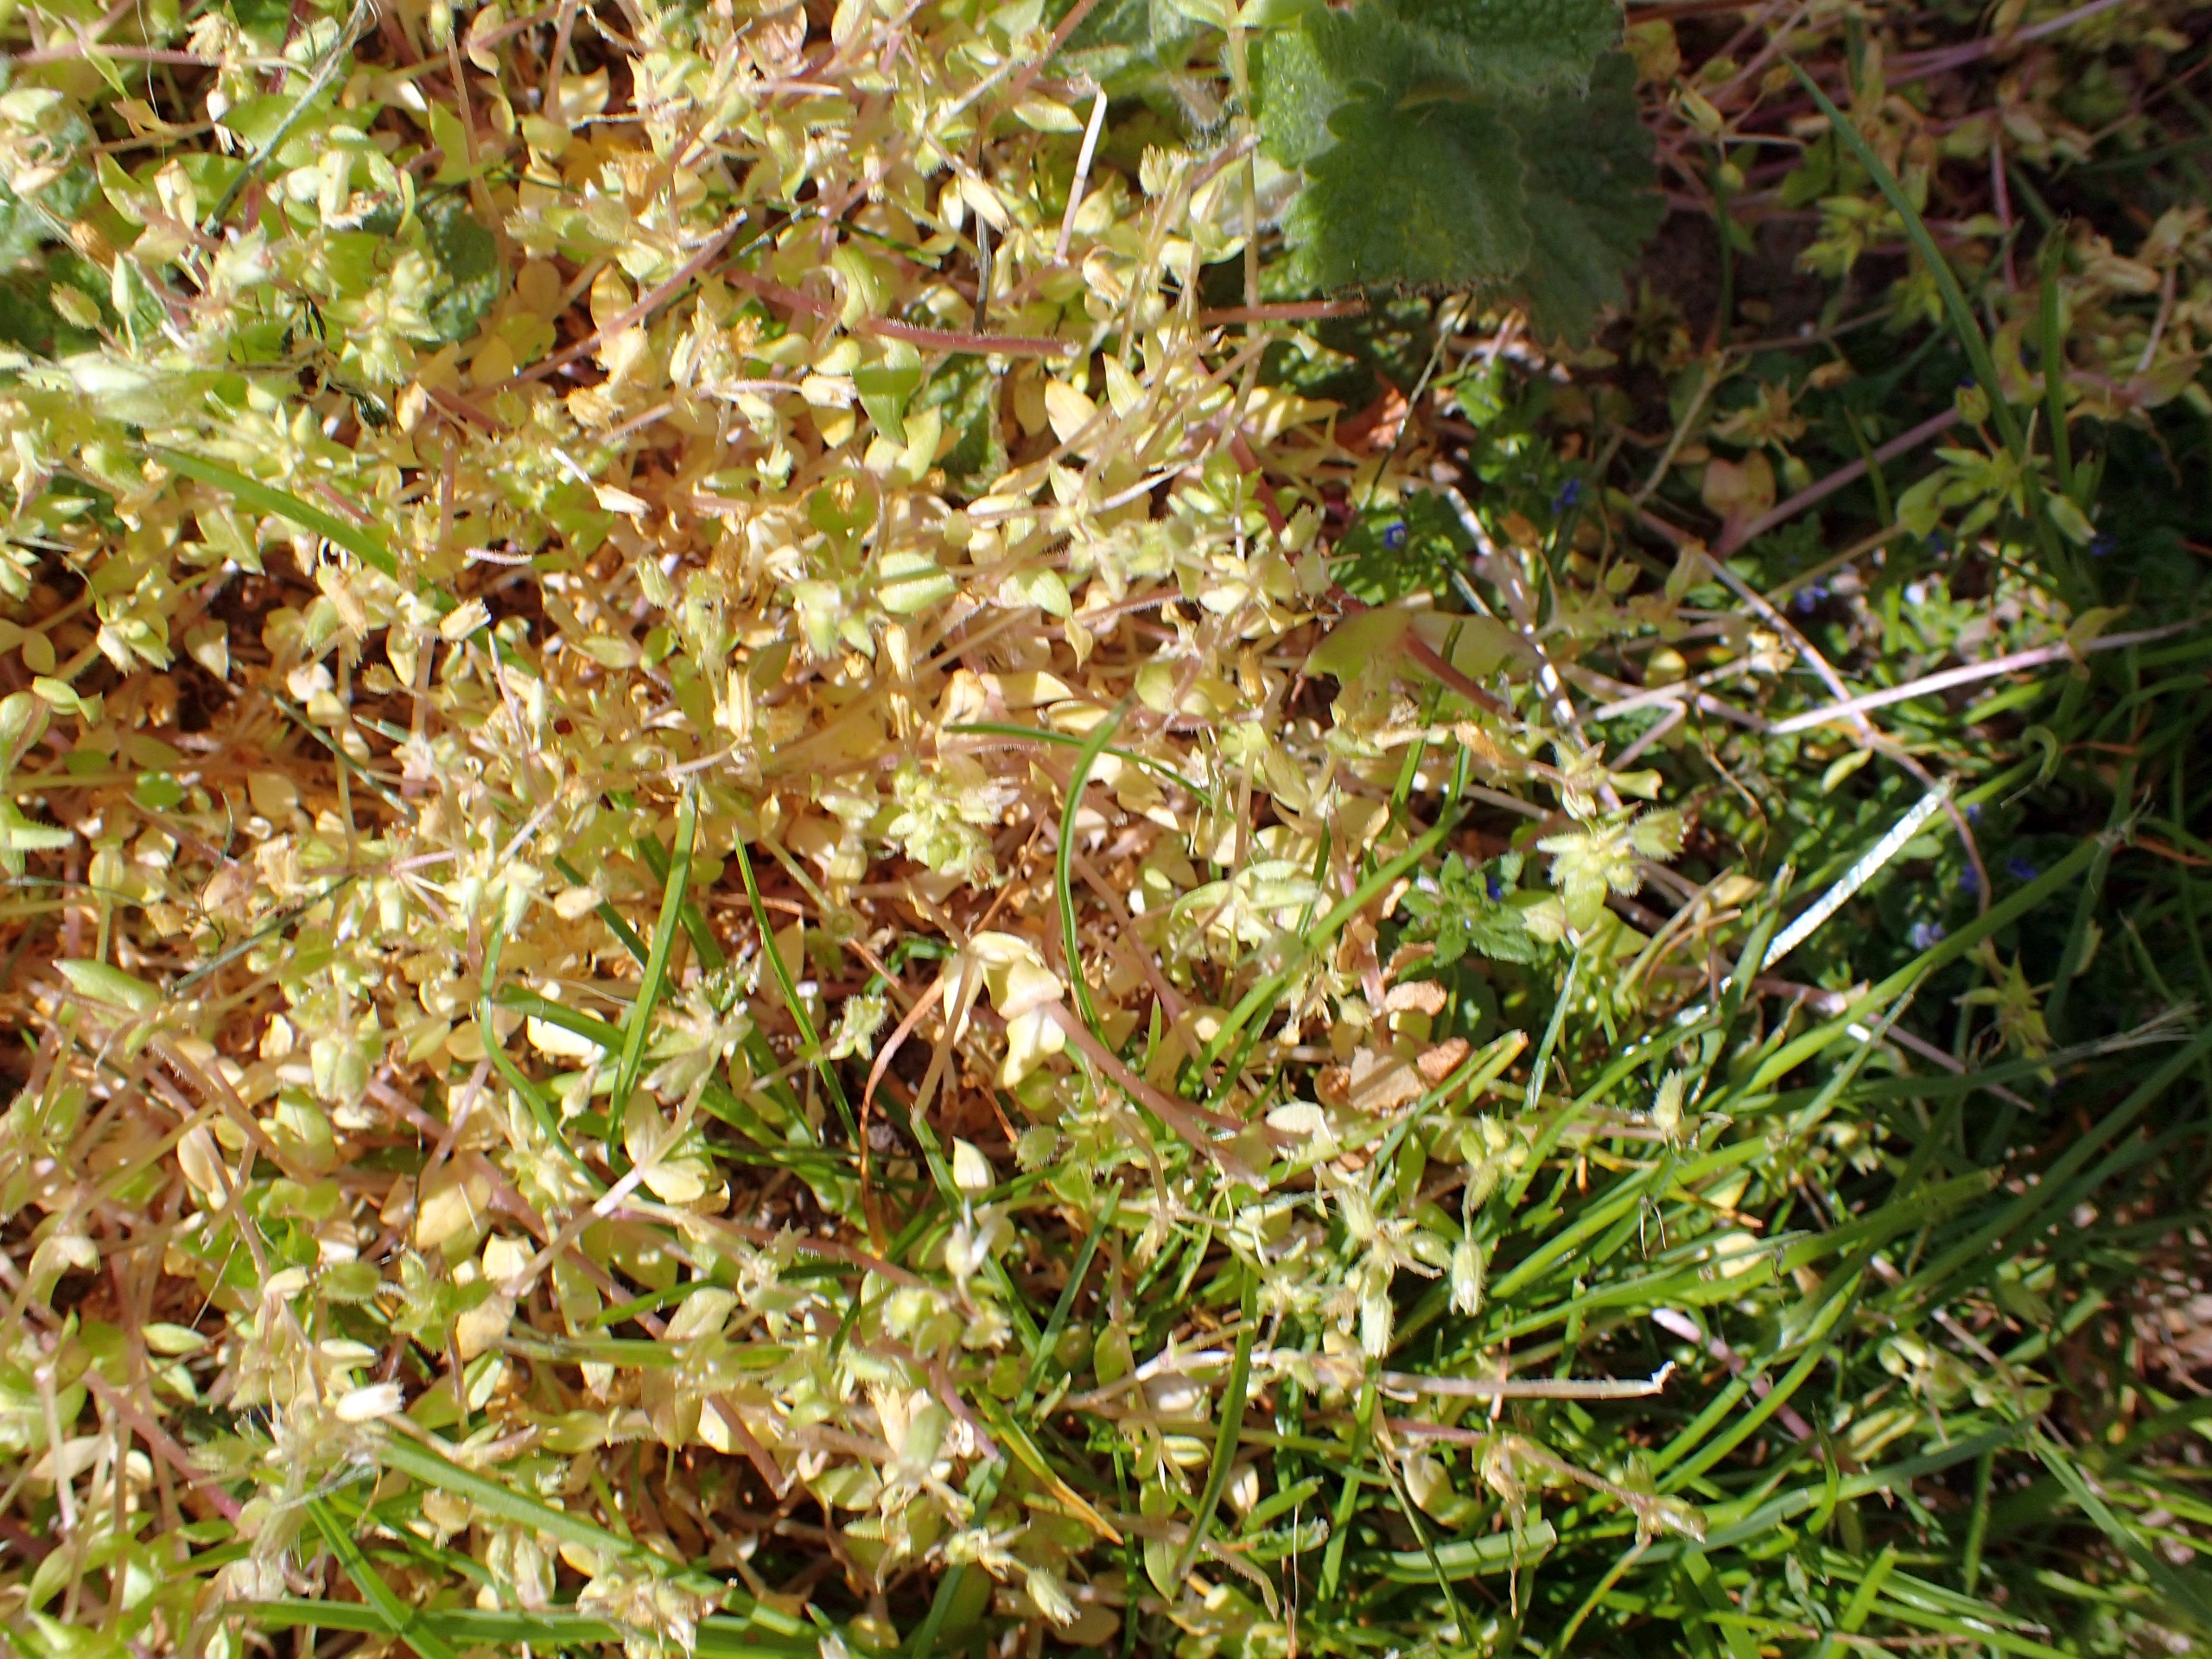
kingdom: Plantae
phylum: Tracheophyta
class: Magnoliopsida
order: Caryophyllales
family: Caryophyllaceae
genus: Stellaria
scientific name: Stellaria apetala
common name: Bleg fuglegræs
